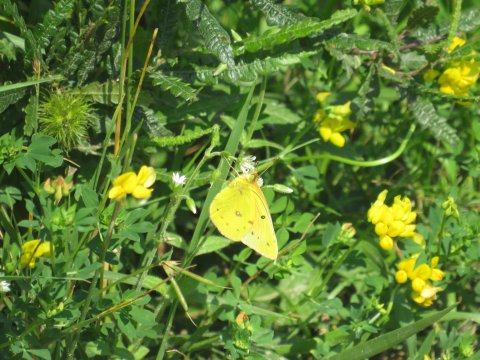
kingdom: Animalia
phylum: Arthropoda
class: Insecta
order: Lepidoptera
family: Pieridae
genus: Colias
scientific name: Colias eurytheme
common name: Orange Sulphur
